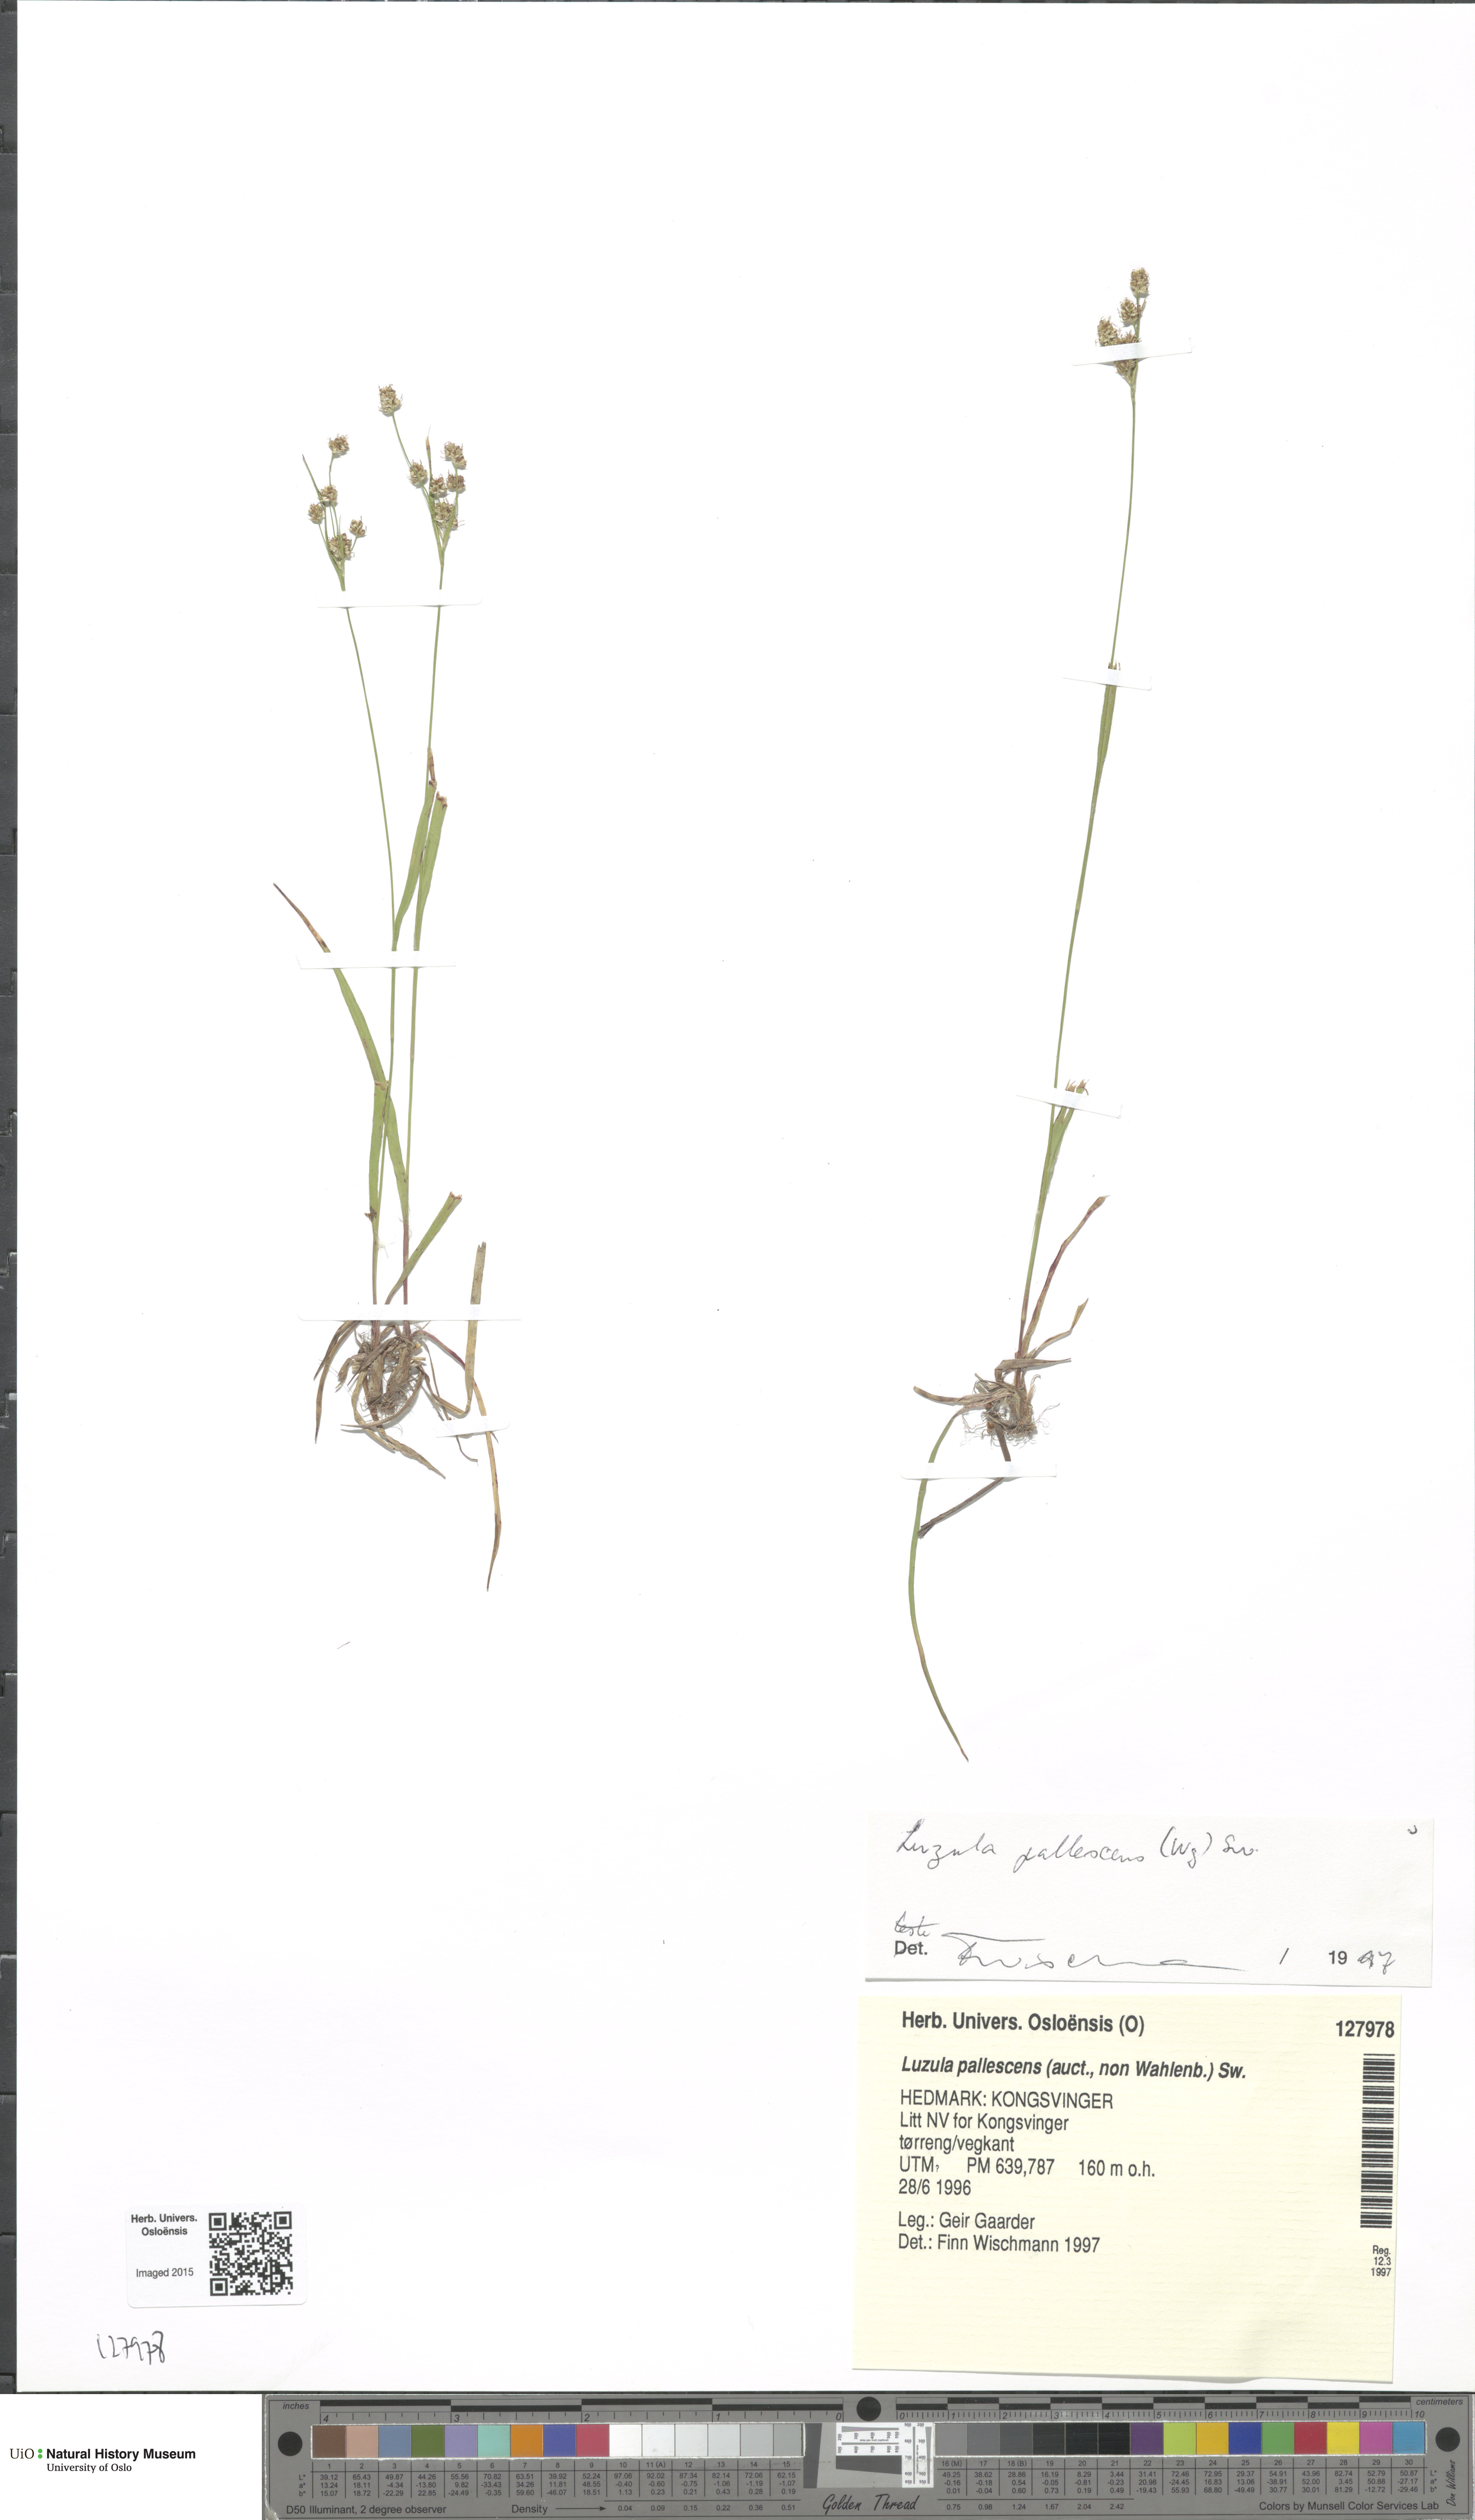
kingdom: Plantae
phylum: Tracheophyta
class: Liliopsida
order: Poales
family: Juncaceae
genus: Luzula
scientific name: Luzula pallescens
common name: Fen wood-rush
